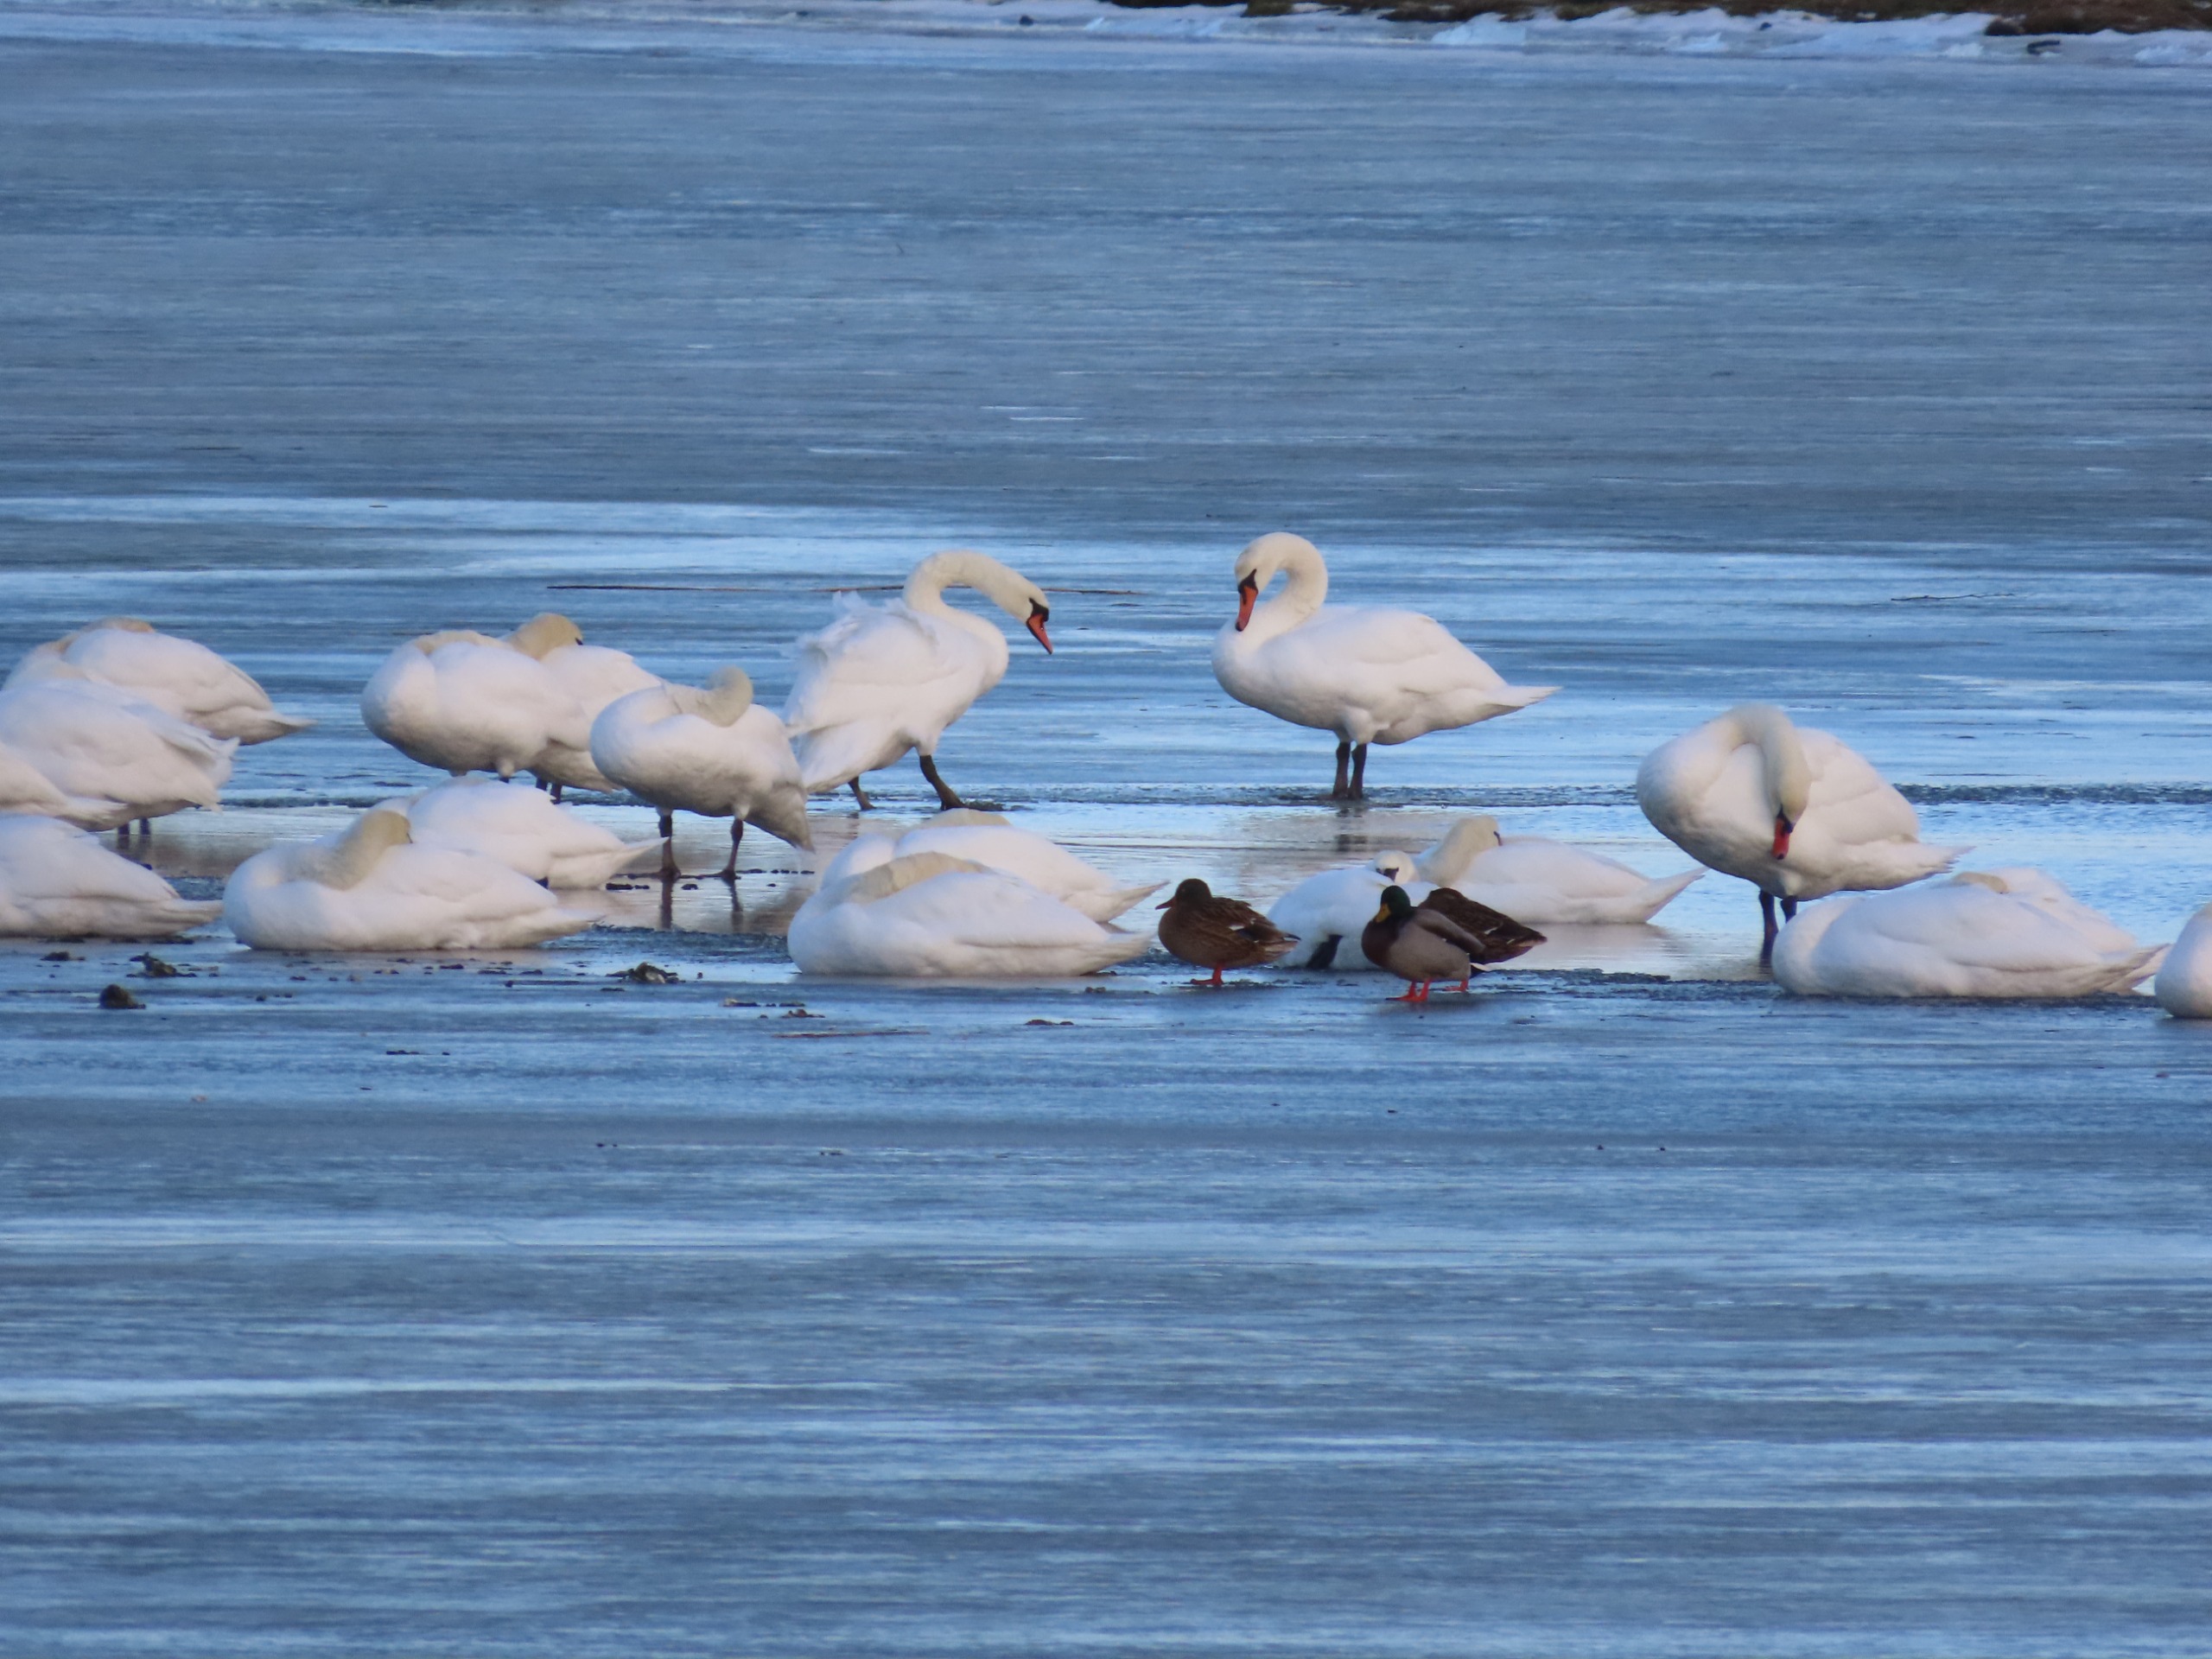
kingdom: Animalia
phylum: Chordata
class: Aves
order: Anseriformes
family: Anatidae
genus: Cygnus
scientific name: Cygnus olor
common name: Knopsvane
